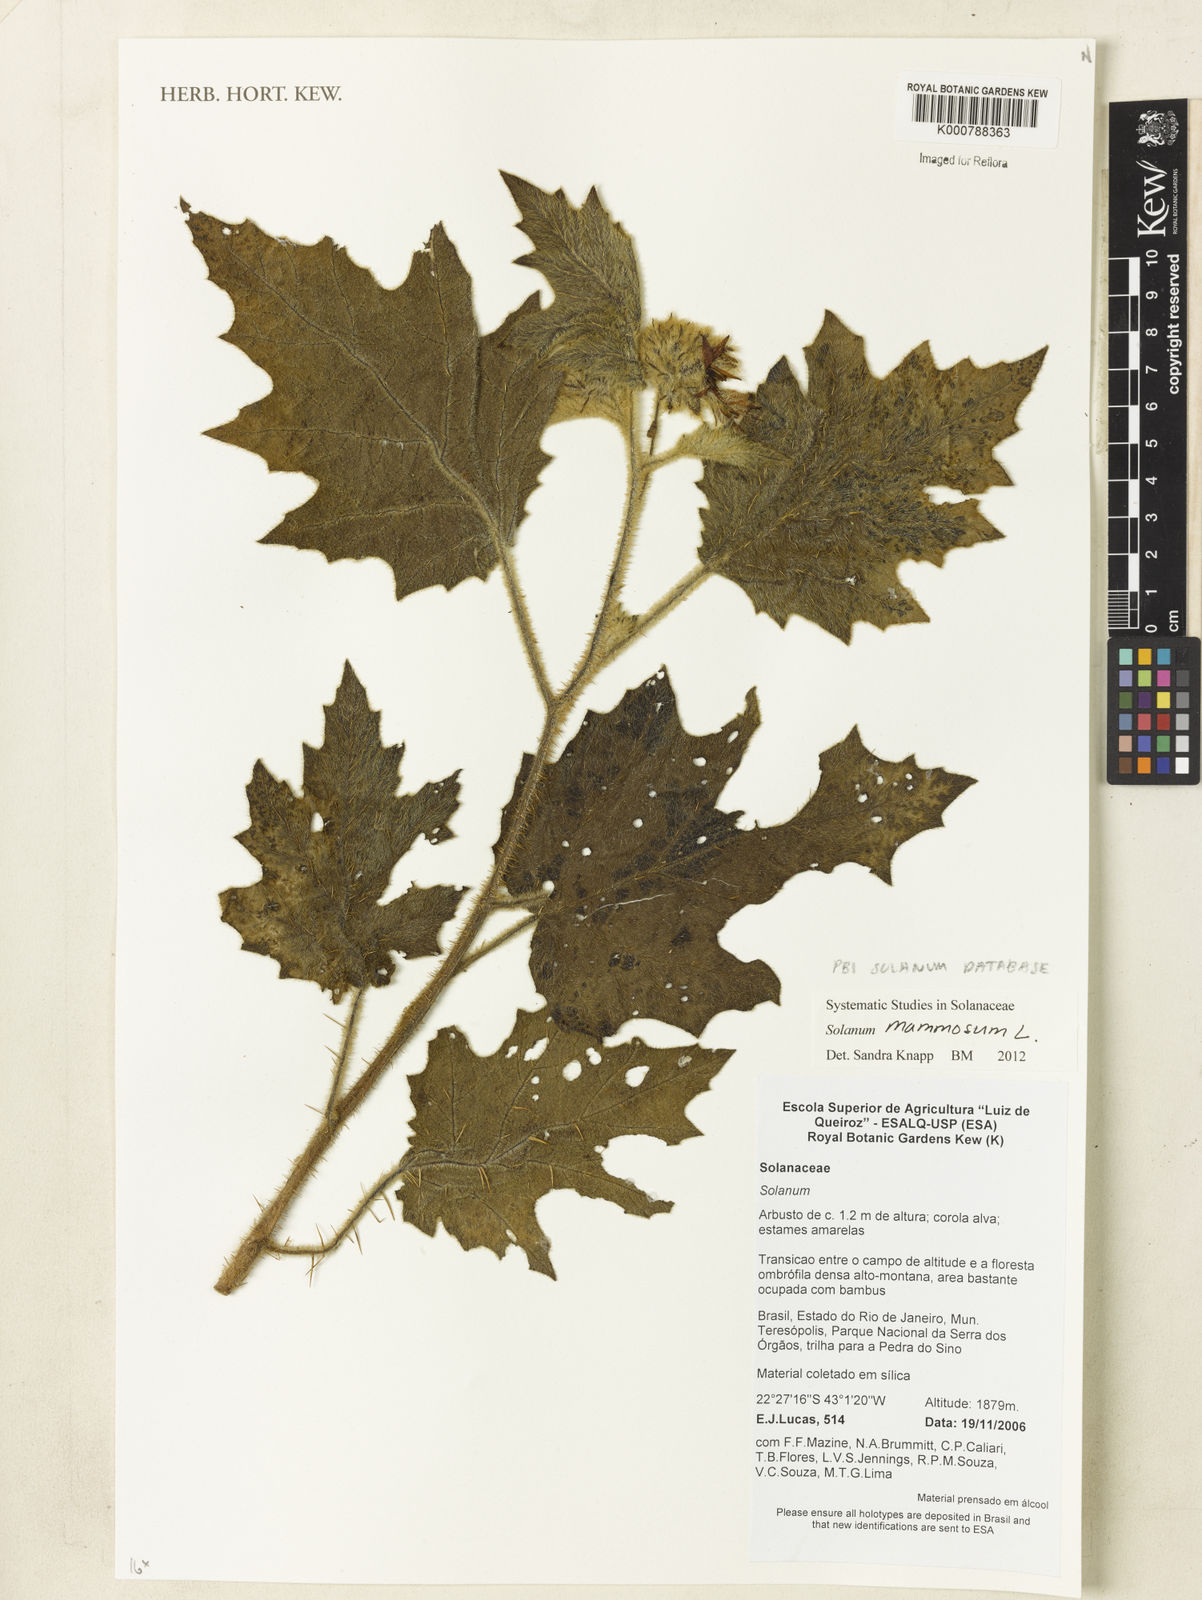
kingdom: Plantae
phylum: Tracheophyta
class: Magnoliopsida
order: Solanales
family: Solanaceae
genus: Solanum
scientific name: Solanum lhotskyanum
